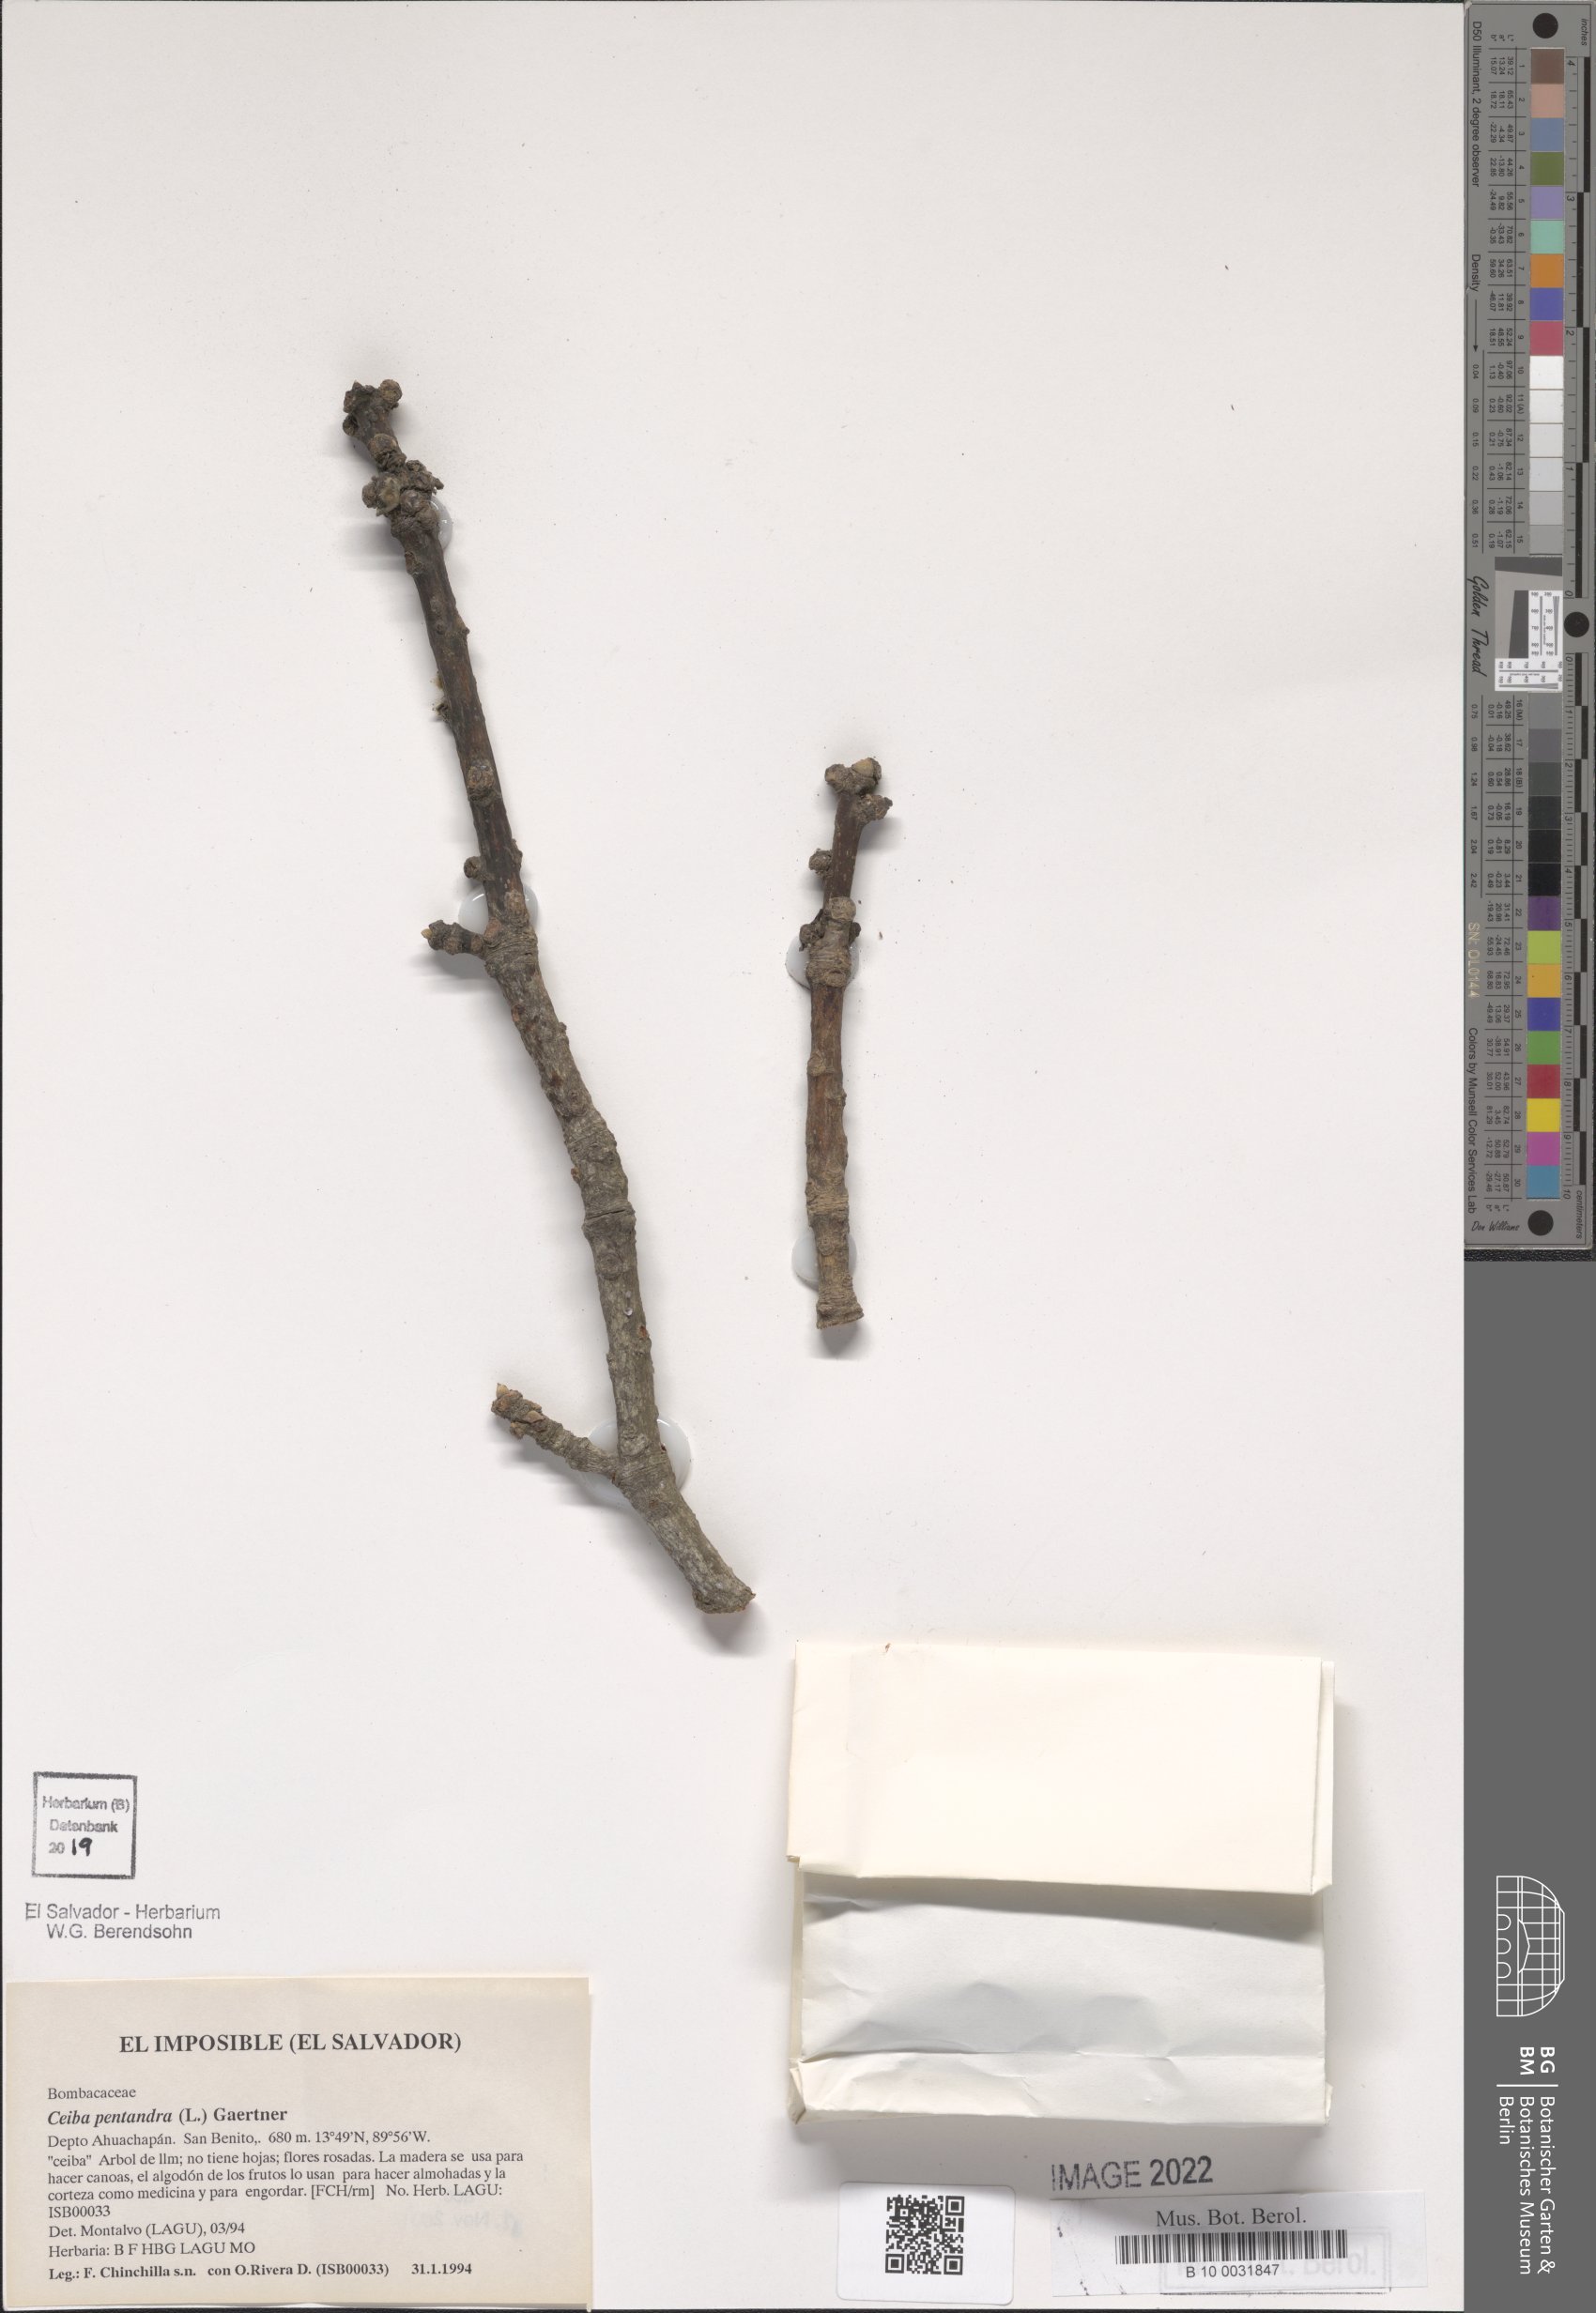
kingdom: Plantae
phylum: Tracheophyta
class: Magnoliopsida
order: Malvales
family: Malvaceae
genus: Ceiba
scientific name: Ceiba pentandra
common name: Kapok
